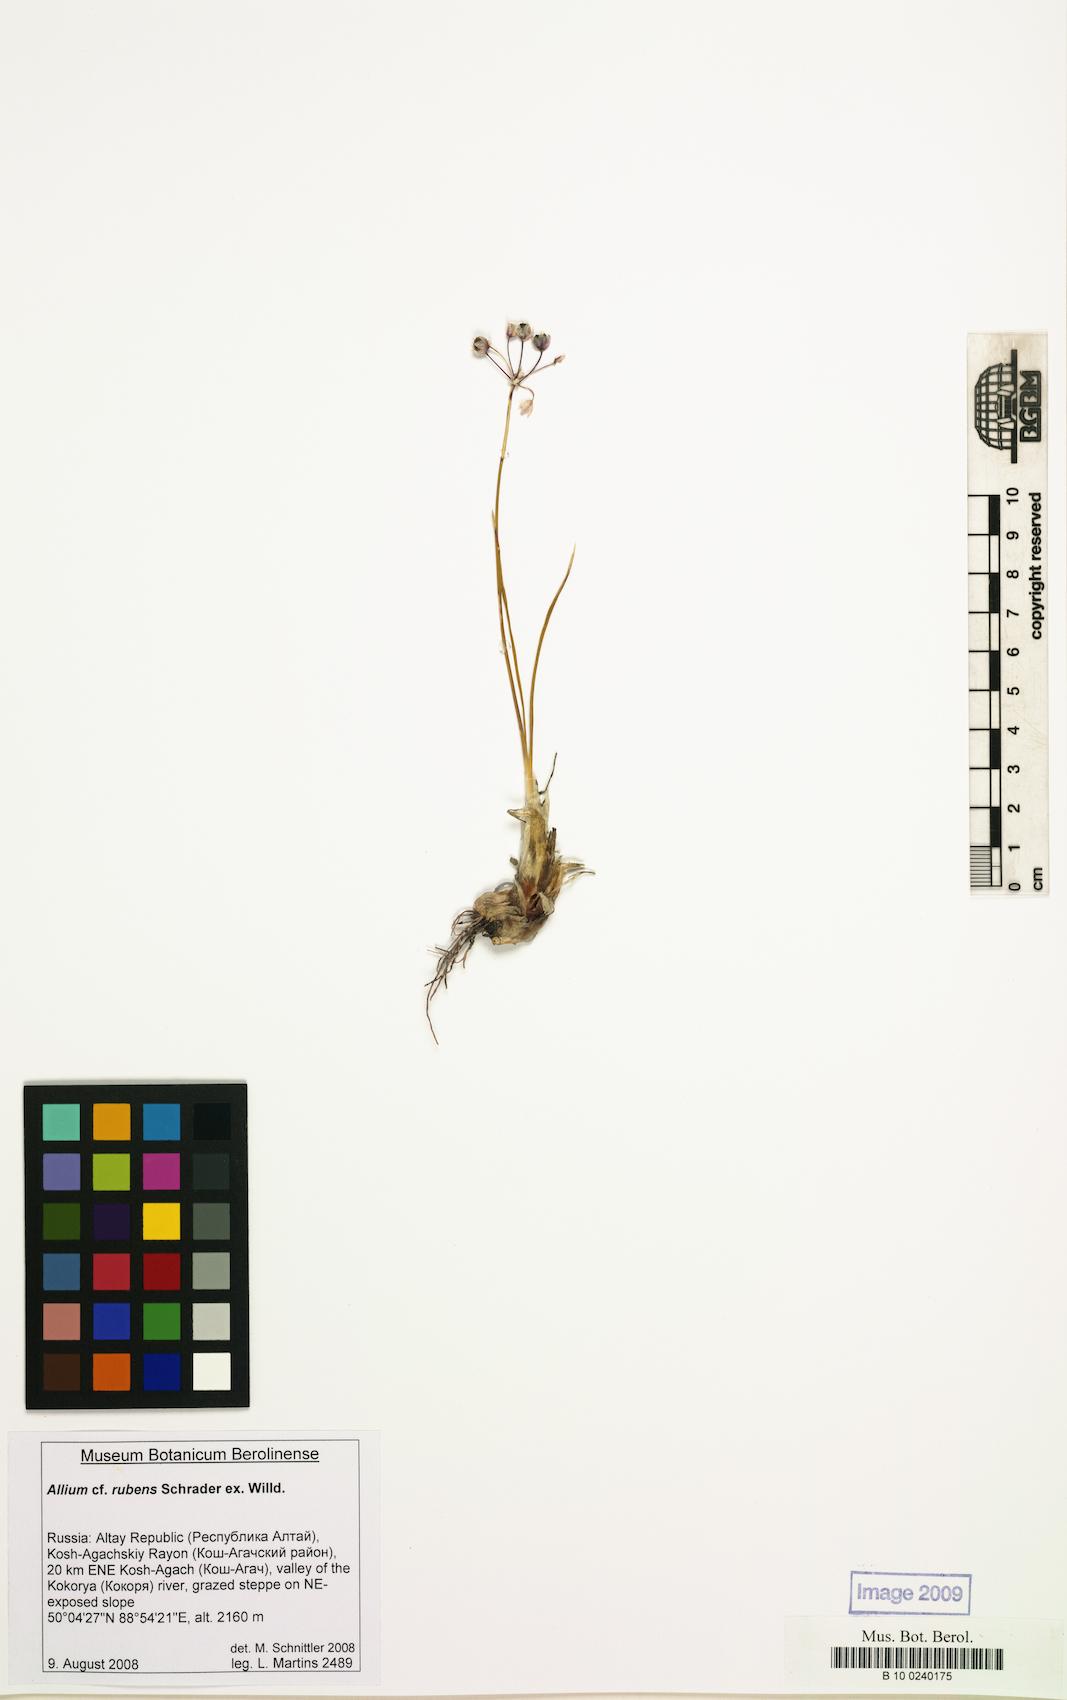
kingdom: Plantae
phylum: Tracheophyta
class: Liliopsida
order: Asparagales
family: Amaryllidaceae
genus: Allium
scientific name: Allium rubens
